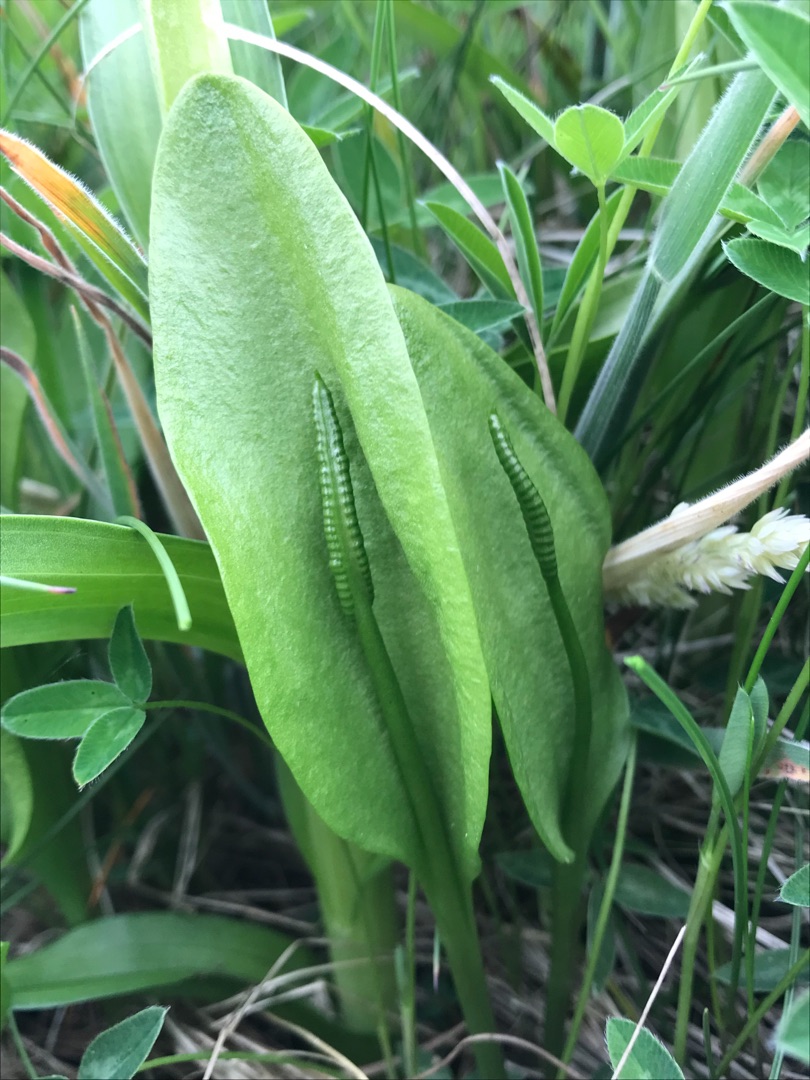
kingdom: Plantae
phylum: Tracheophyta
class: Polypodiopsida
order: Ophioglossales
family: Ophioglossaceae
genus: Ophioglossum
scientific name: Ophioglossum vulgatum
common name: Slangetunge
